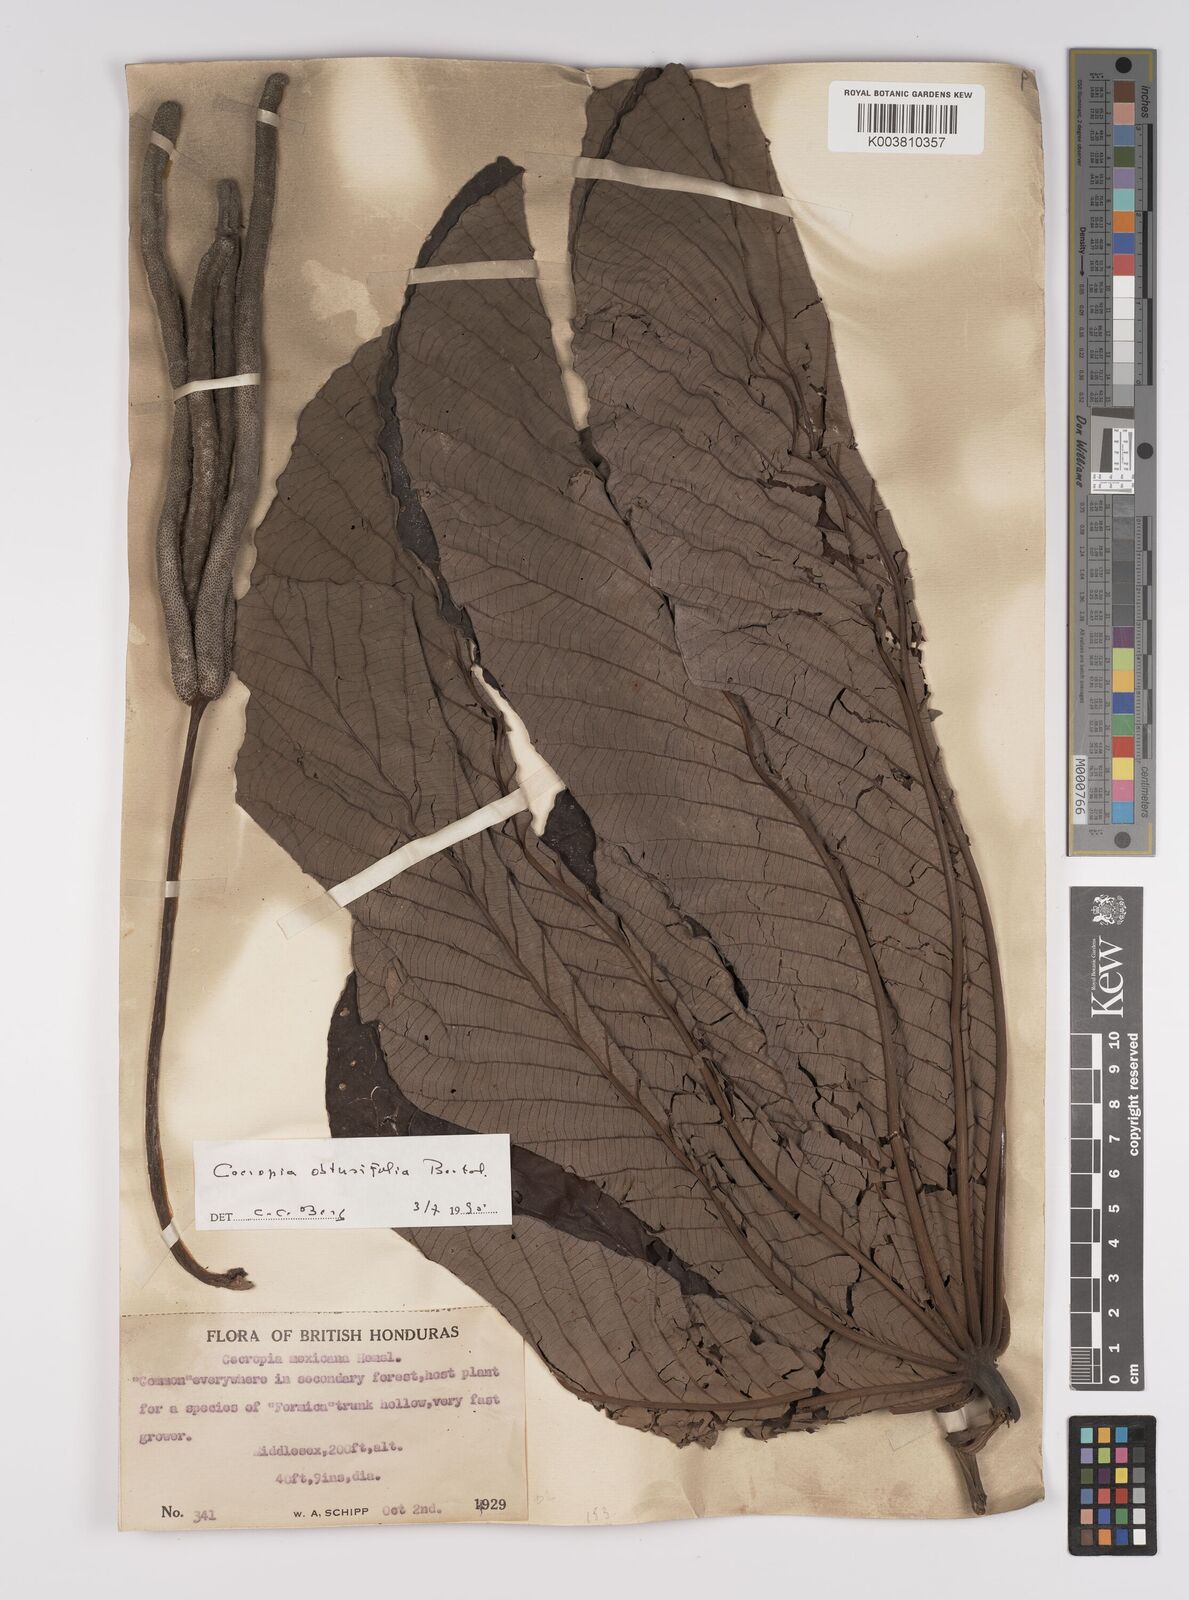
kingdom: Plantae
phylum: Tracheophyta
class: Magnoliopsida
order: Rosales
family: Urticaceae
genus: Cecropia
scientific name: Cecropia obtusifolia
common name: Trumpet tree
